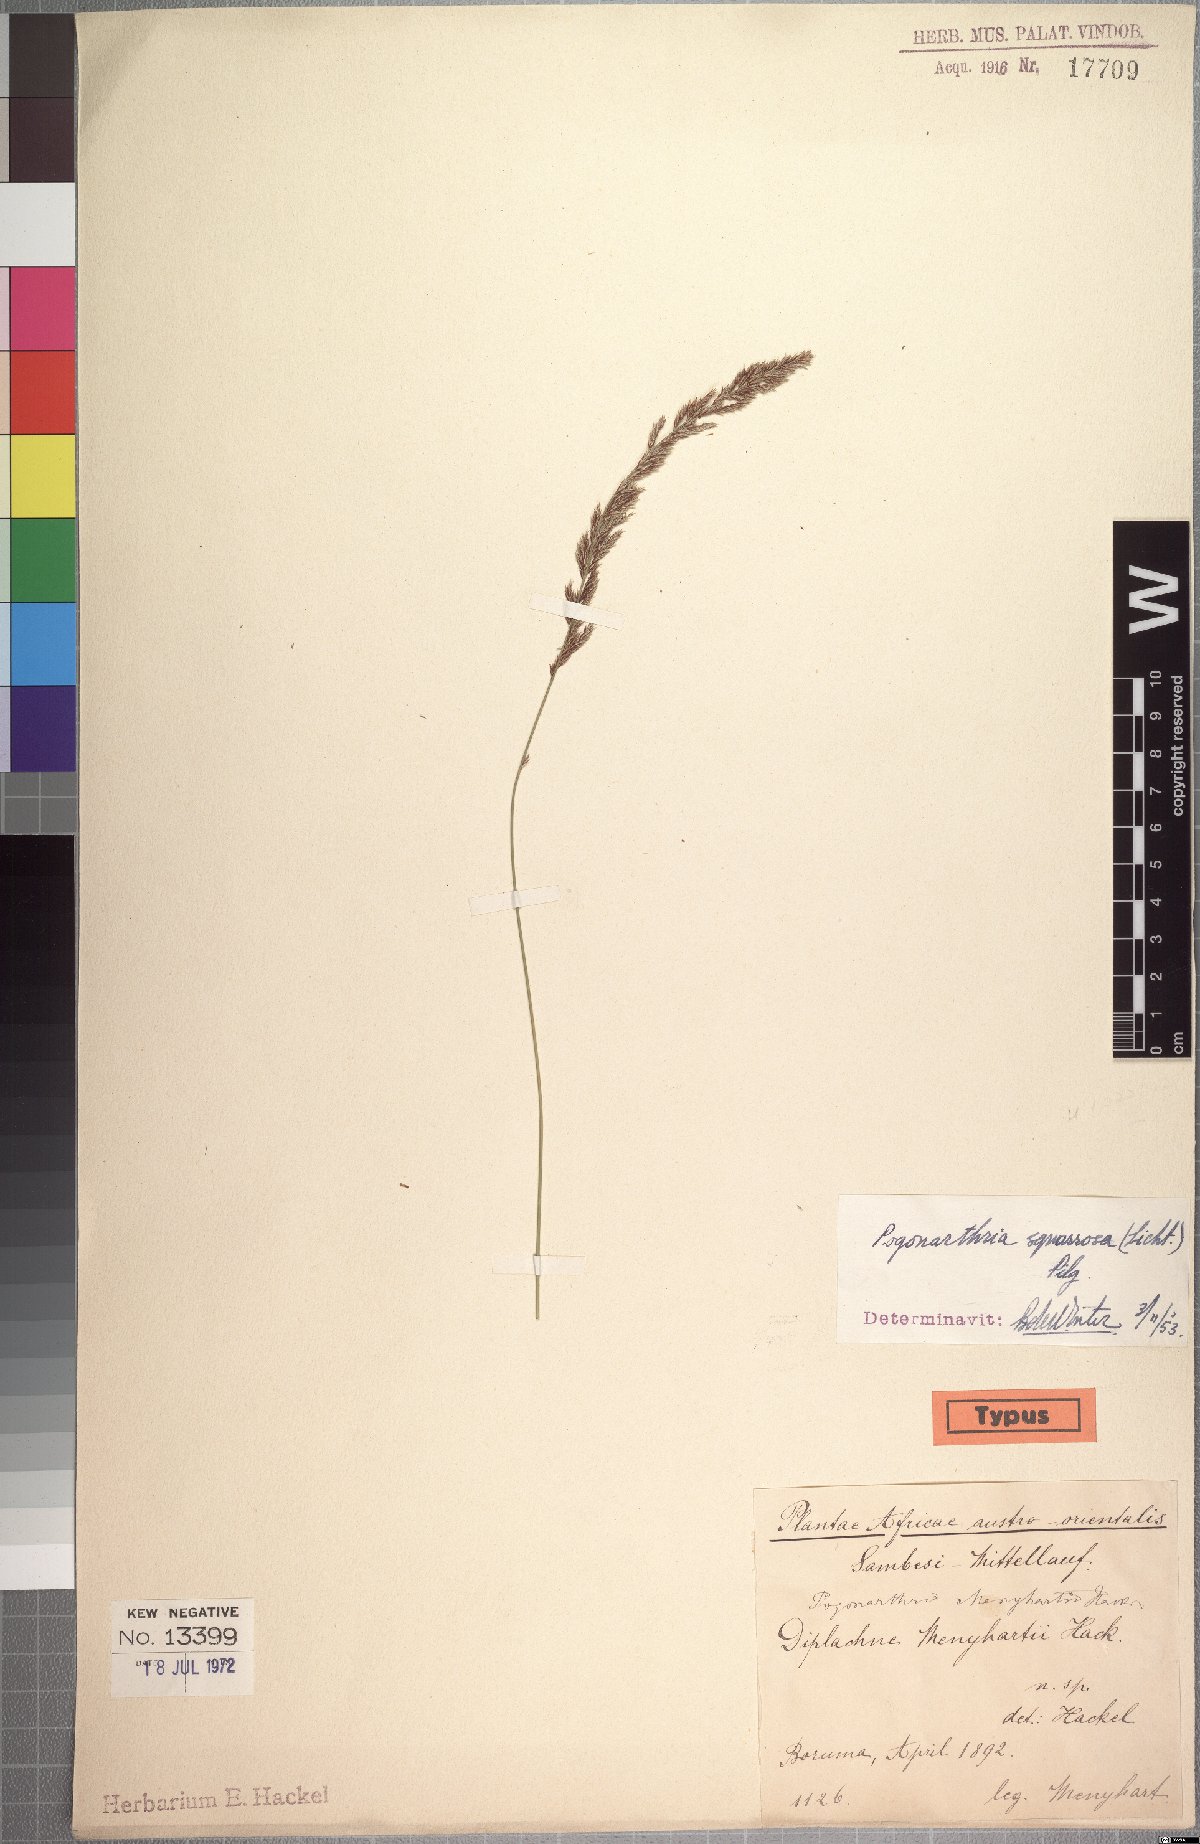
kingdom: Plantae
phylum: Tracheophyta
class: Liliopsida
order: Poales
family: Poaceae
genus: Pogonarthria
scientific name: Pogonarthria squarrosa
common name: Grass
